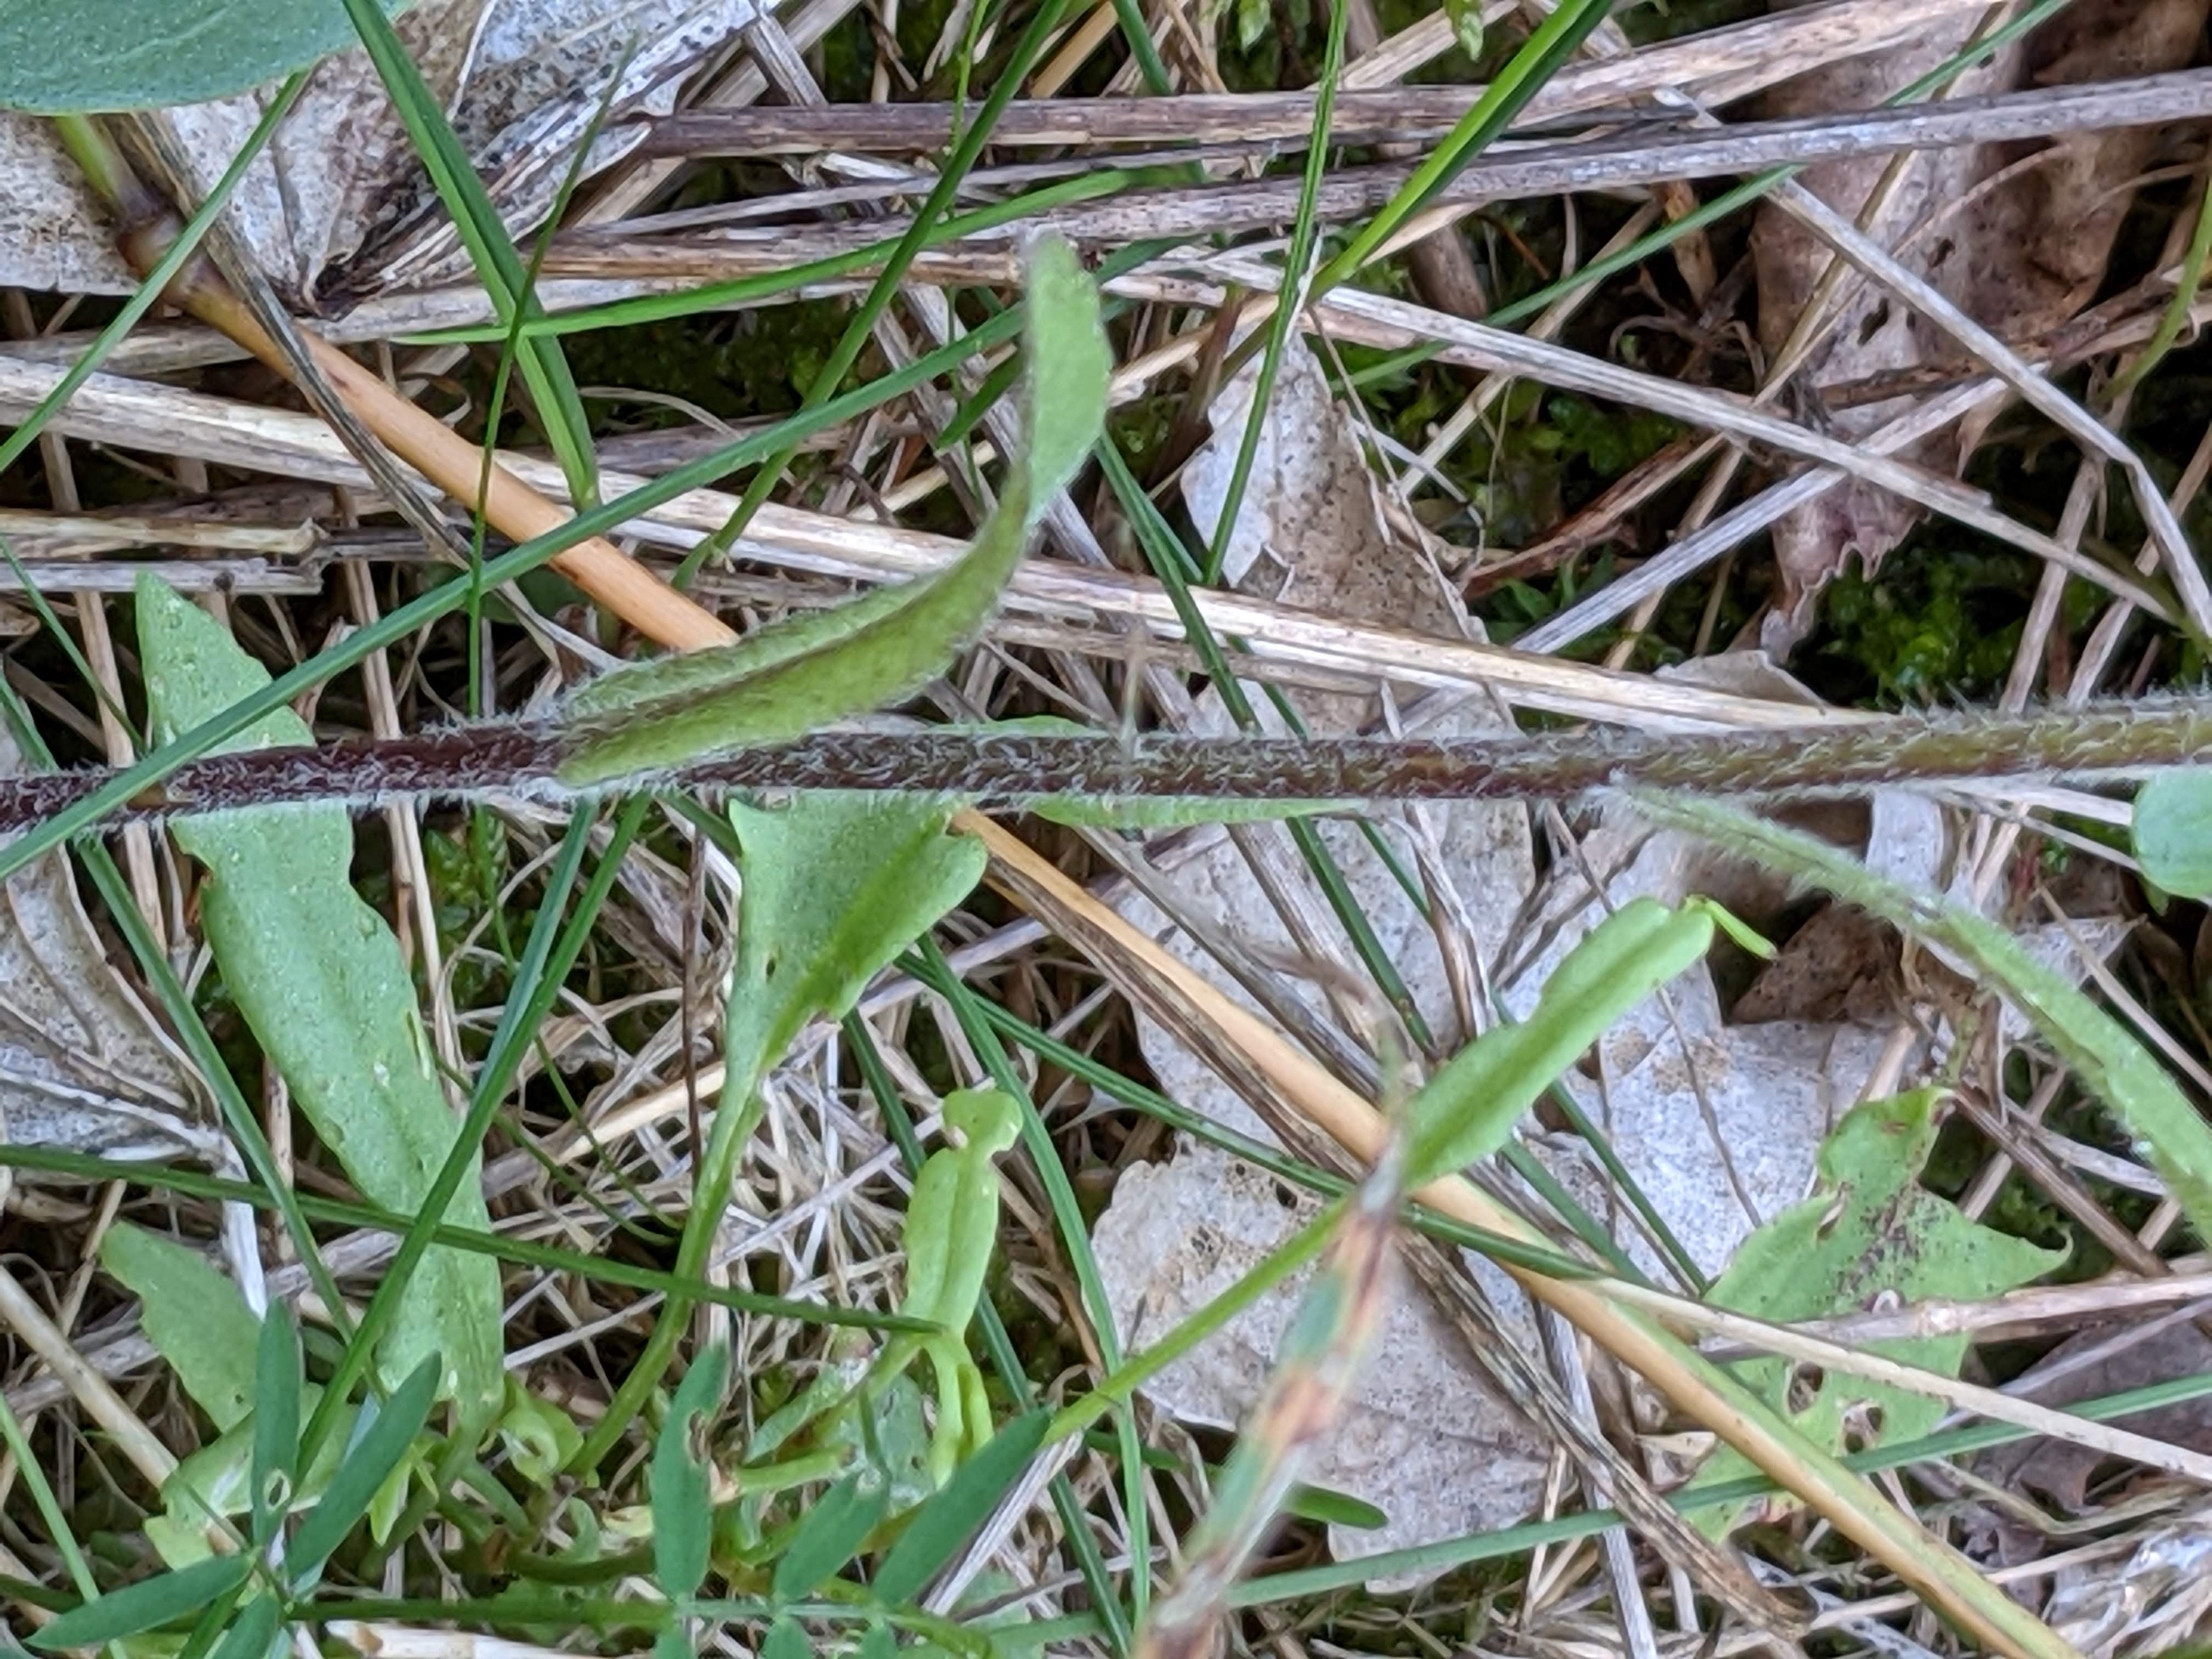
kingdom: Plantae
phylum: Tracheophyta
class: Magnoliopsida
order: Asterales
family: Campanulaceae
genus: Campanula
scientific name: Campanula patula
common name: Eng-klokke
